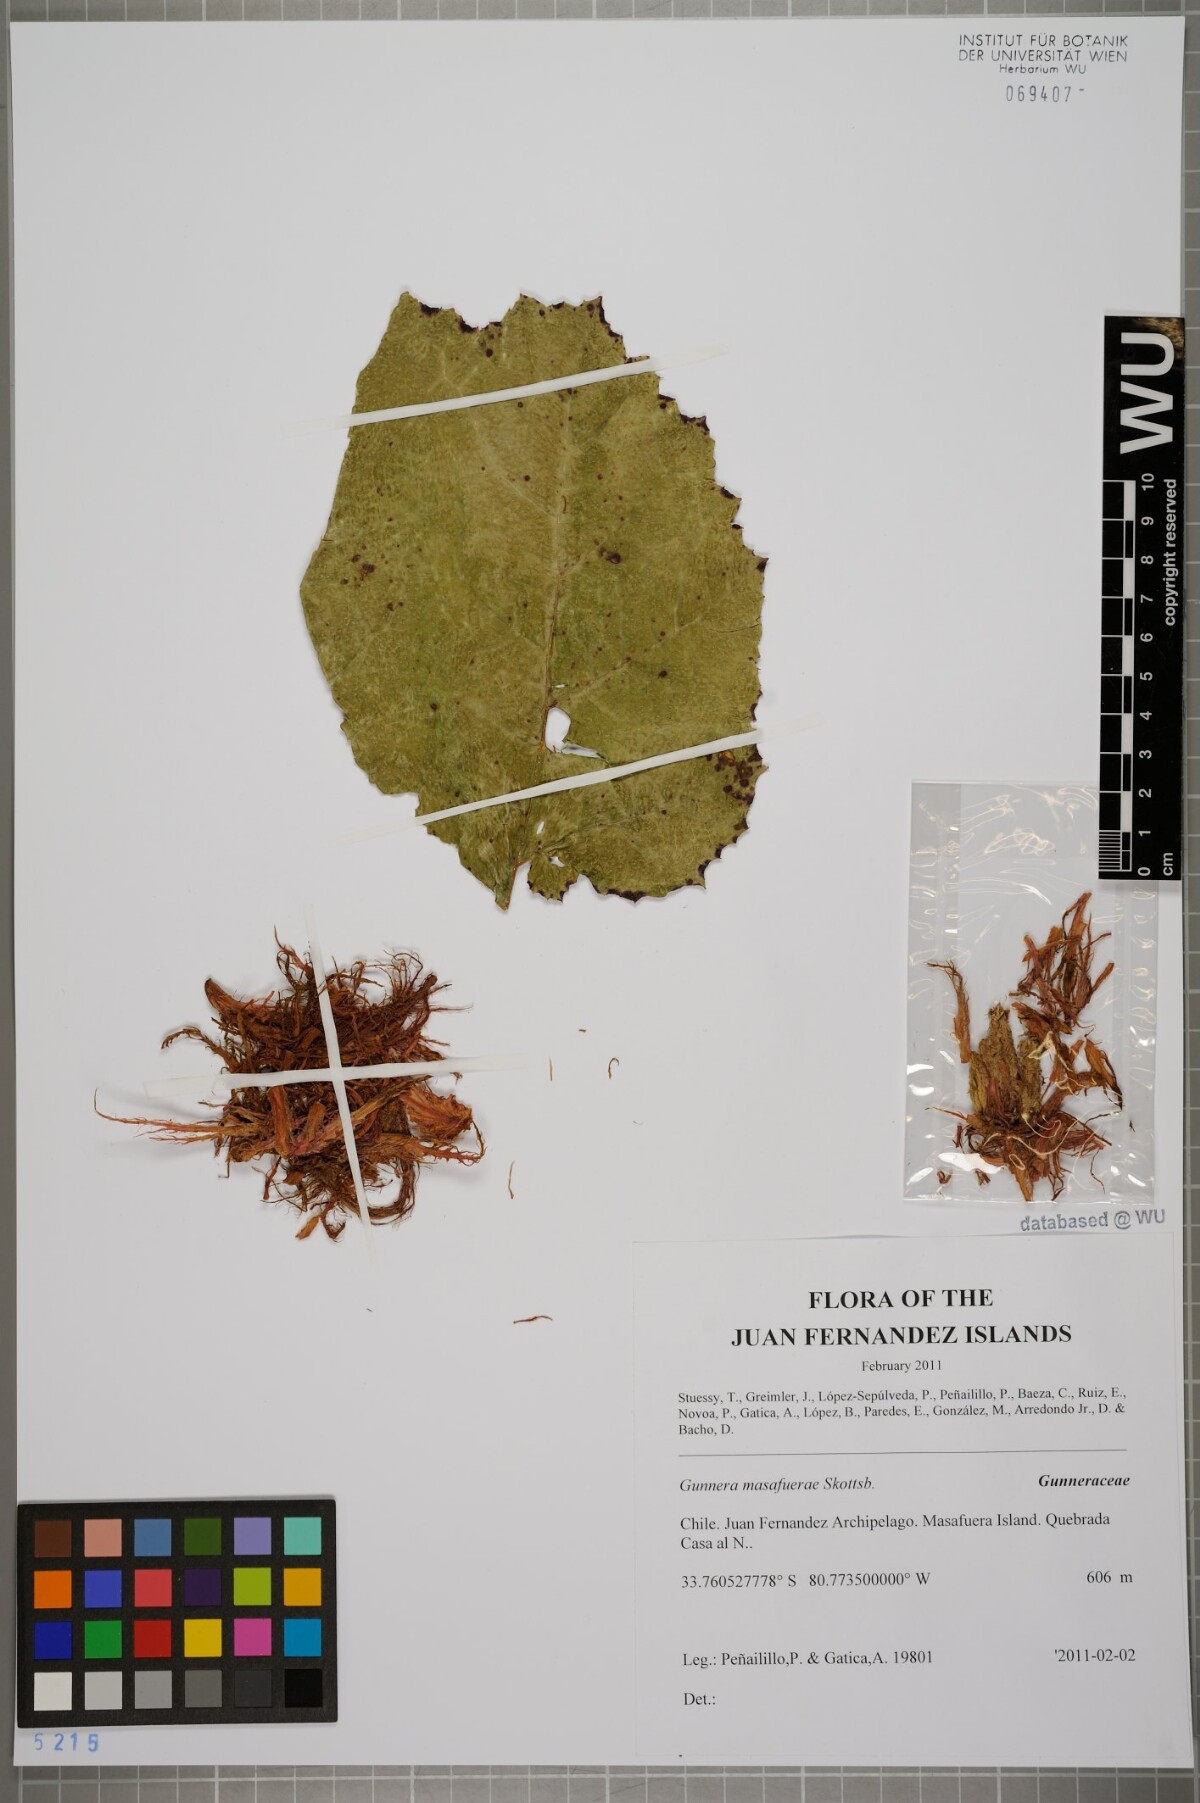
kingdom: Plantae
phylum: Tracheophyta
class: Magnoliopsida
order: Gunnerales
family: Gunneraceae
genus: Gunnera
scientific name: Gunnera masafuerae
